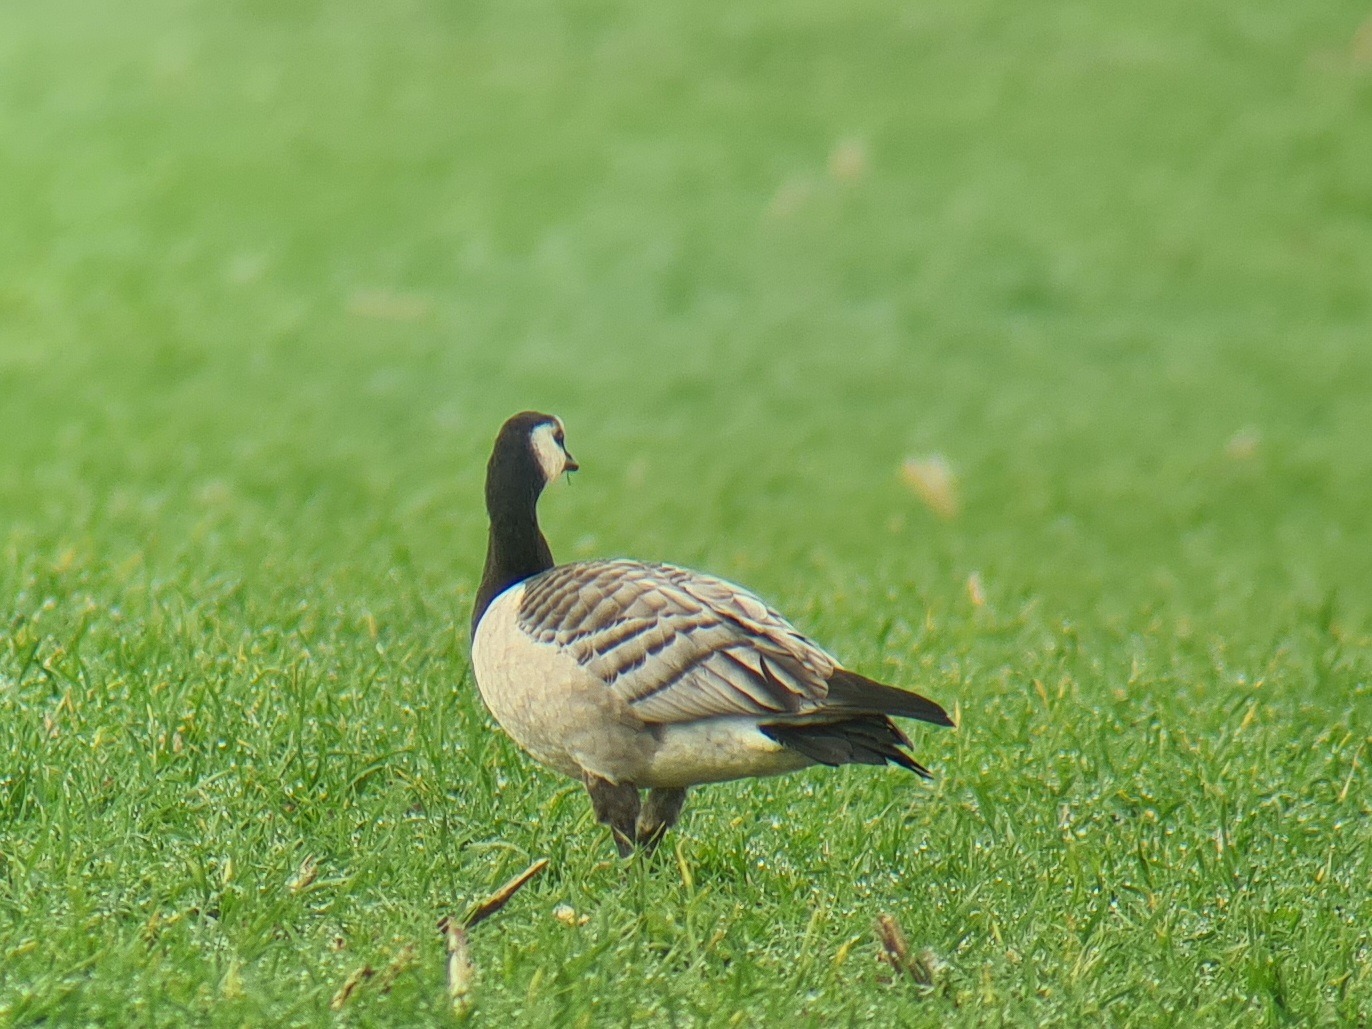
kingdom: Animalia
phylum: Chordata
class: Aves
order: Anseriformes
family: Anatidae
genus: Branta
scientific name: Branta leucopsis
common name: Bramgås
